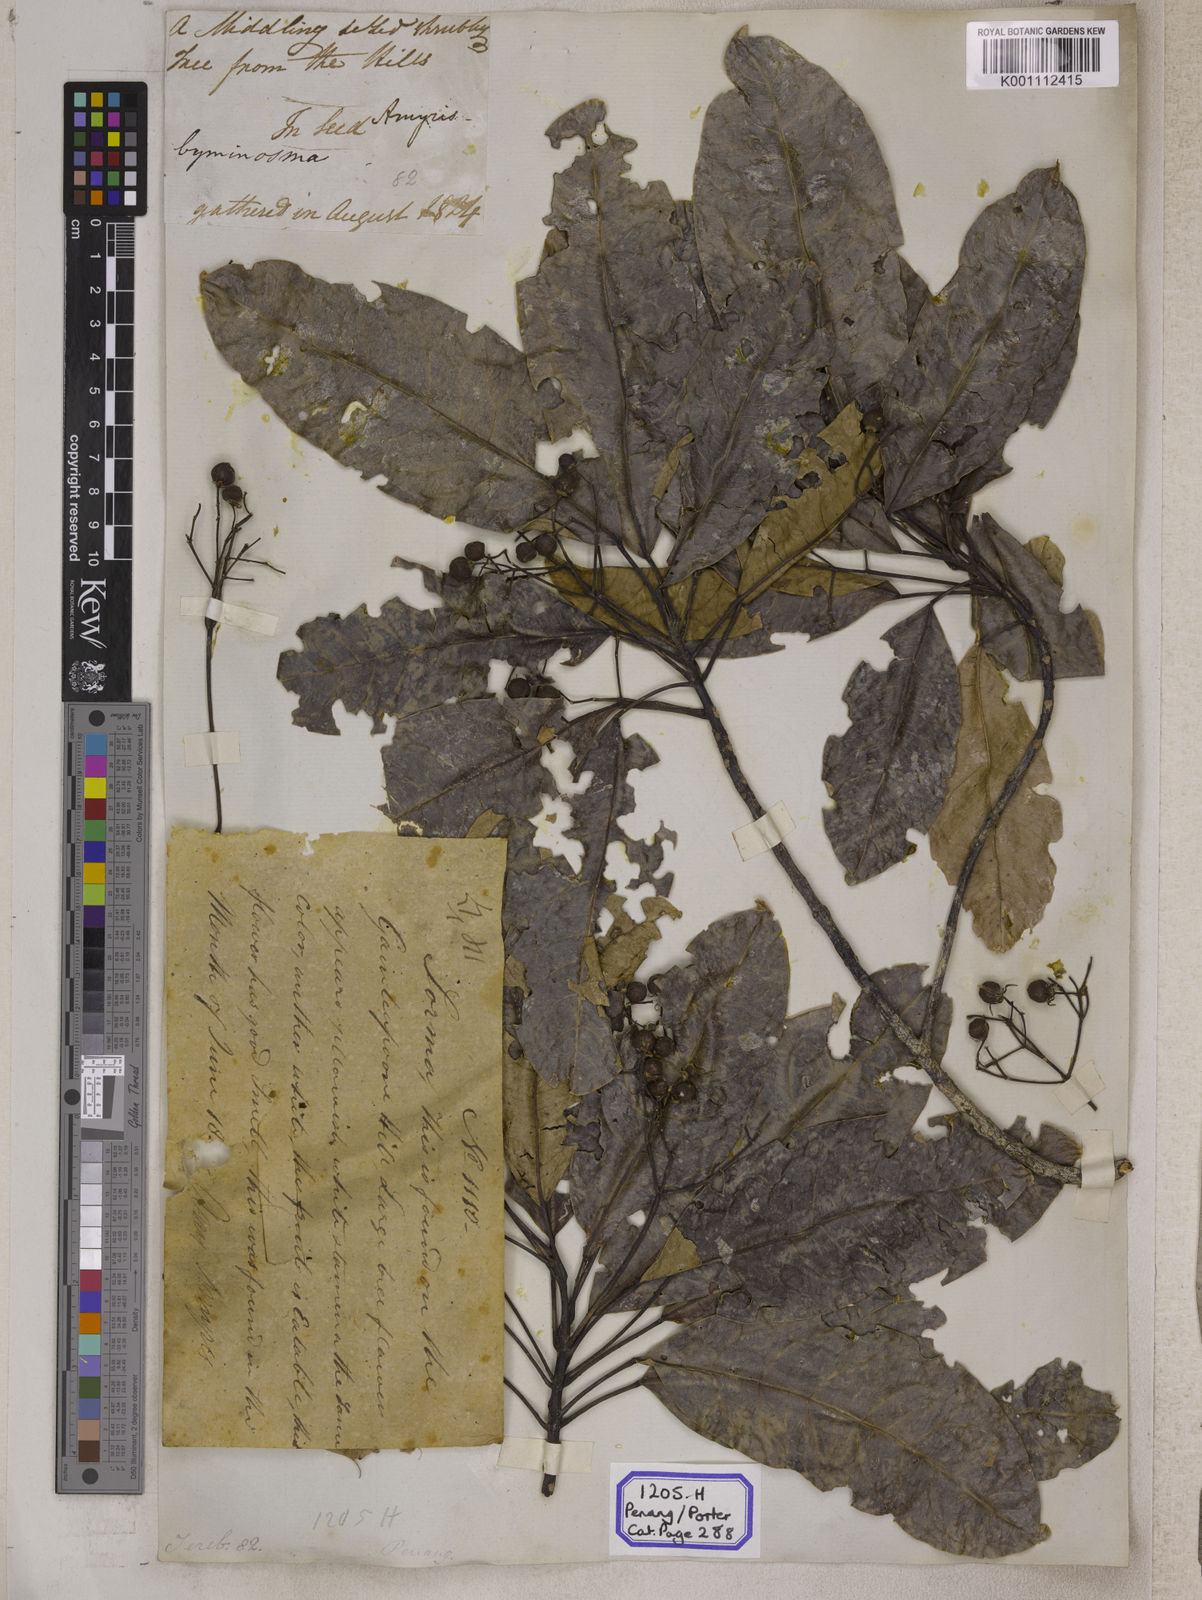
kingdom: Plantae
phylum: Tracheophyta
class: Magnoliopsida
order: Sapindales
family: Rutaceae
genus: Acronychia
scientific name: Acronychia
